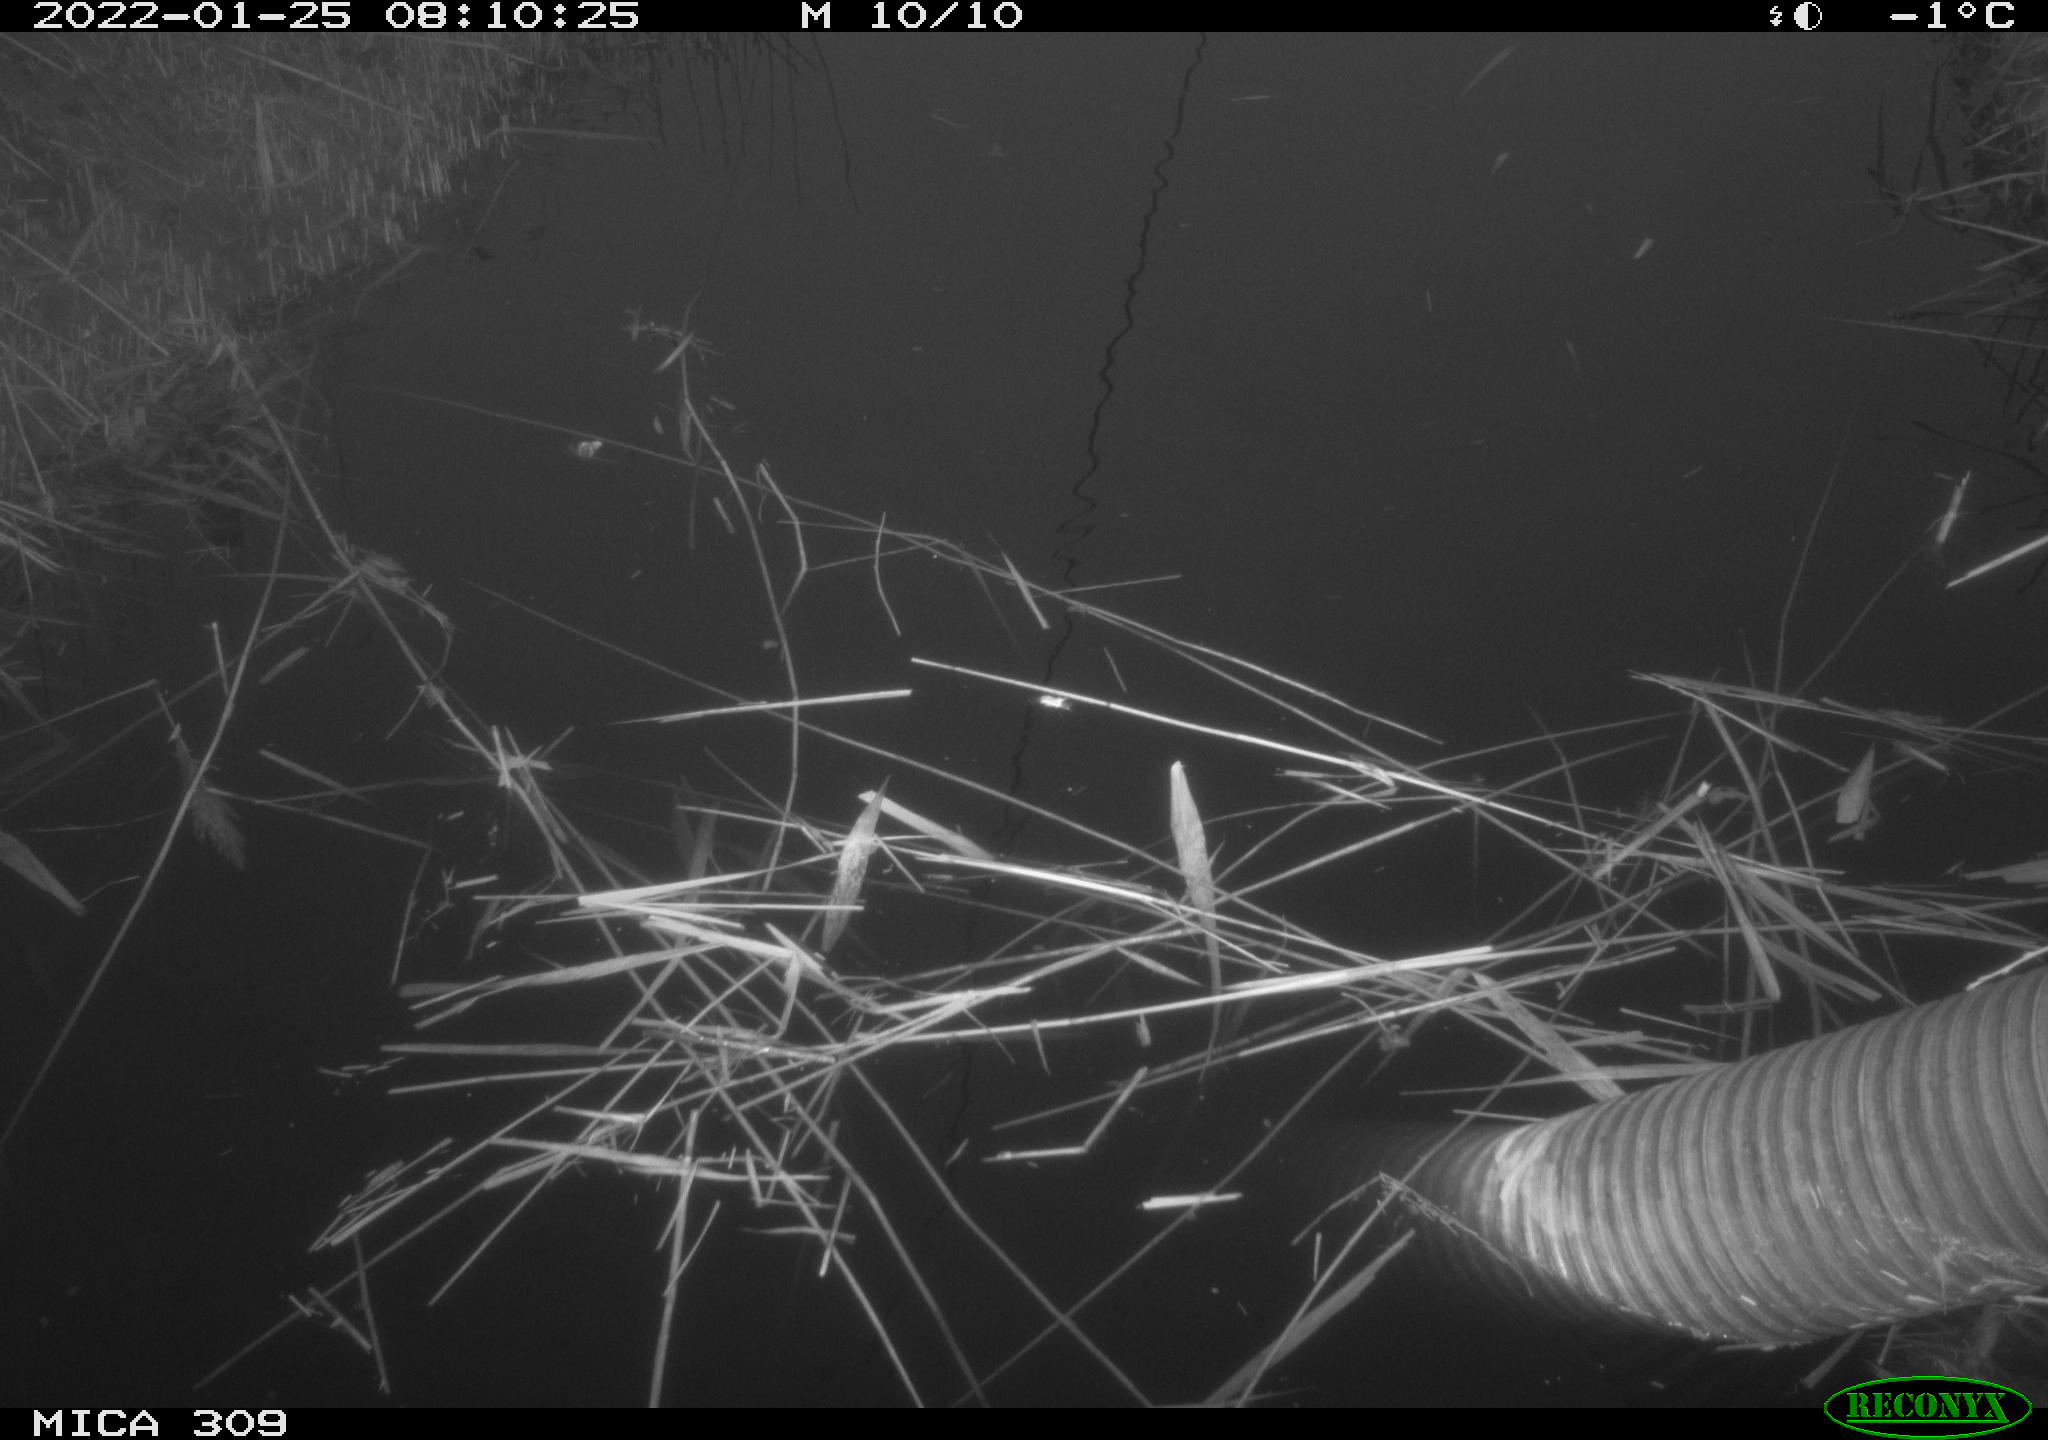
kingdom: Animalia
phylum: Chordata
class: Aves
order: Gruiformes
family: Rallidae
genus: Gallinula
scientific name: Gallinula chloropus
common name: Common moorhen
